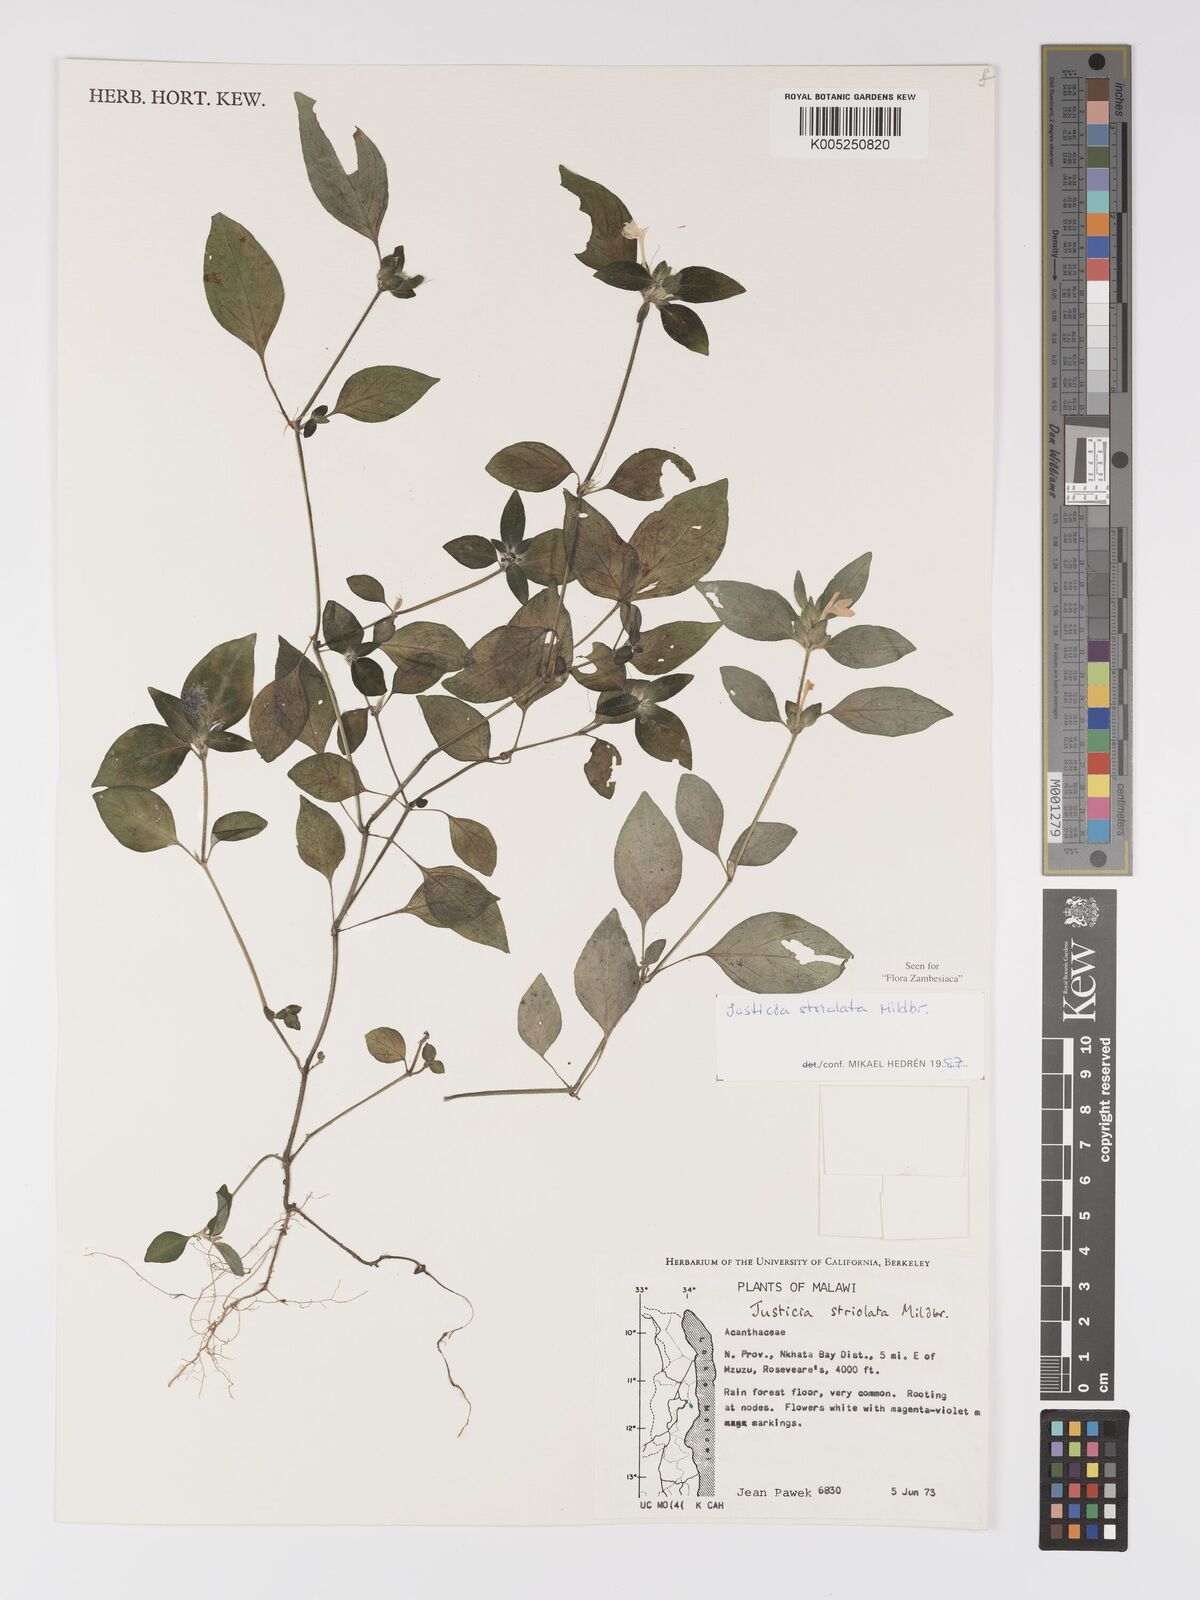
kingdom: Plantae
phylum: Tracheophyta
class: Magnoliopsida
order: Lamiales
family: Acanthaceae
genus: Justicia
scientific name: Justicia striolata
